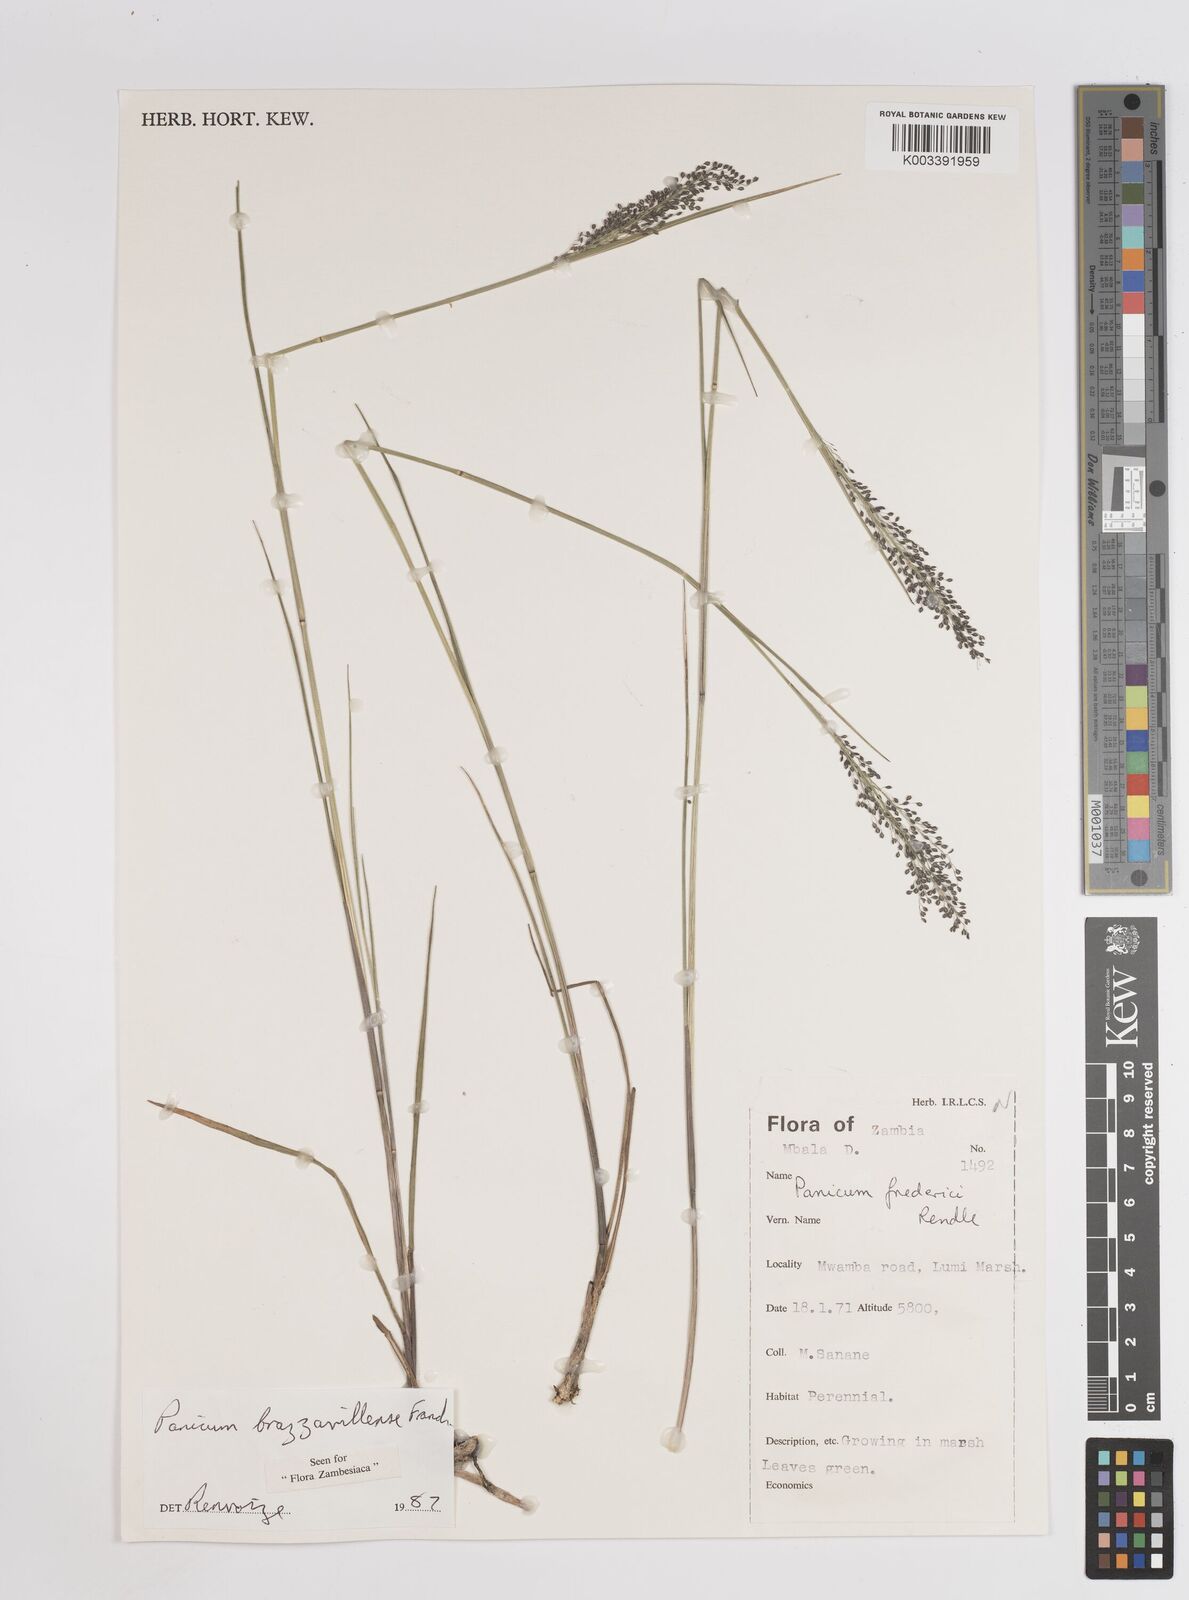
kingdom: Plantae
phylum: Tracheophyta
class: Liliopsida
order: Poales
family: Poaceae
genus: Trichanthecium
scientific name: Trichanthecium brazzavillense
